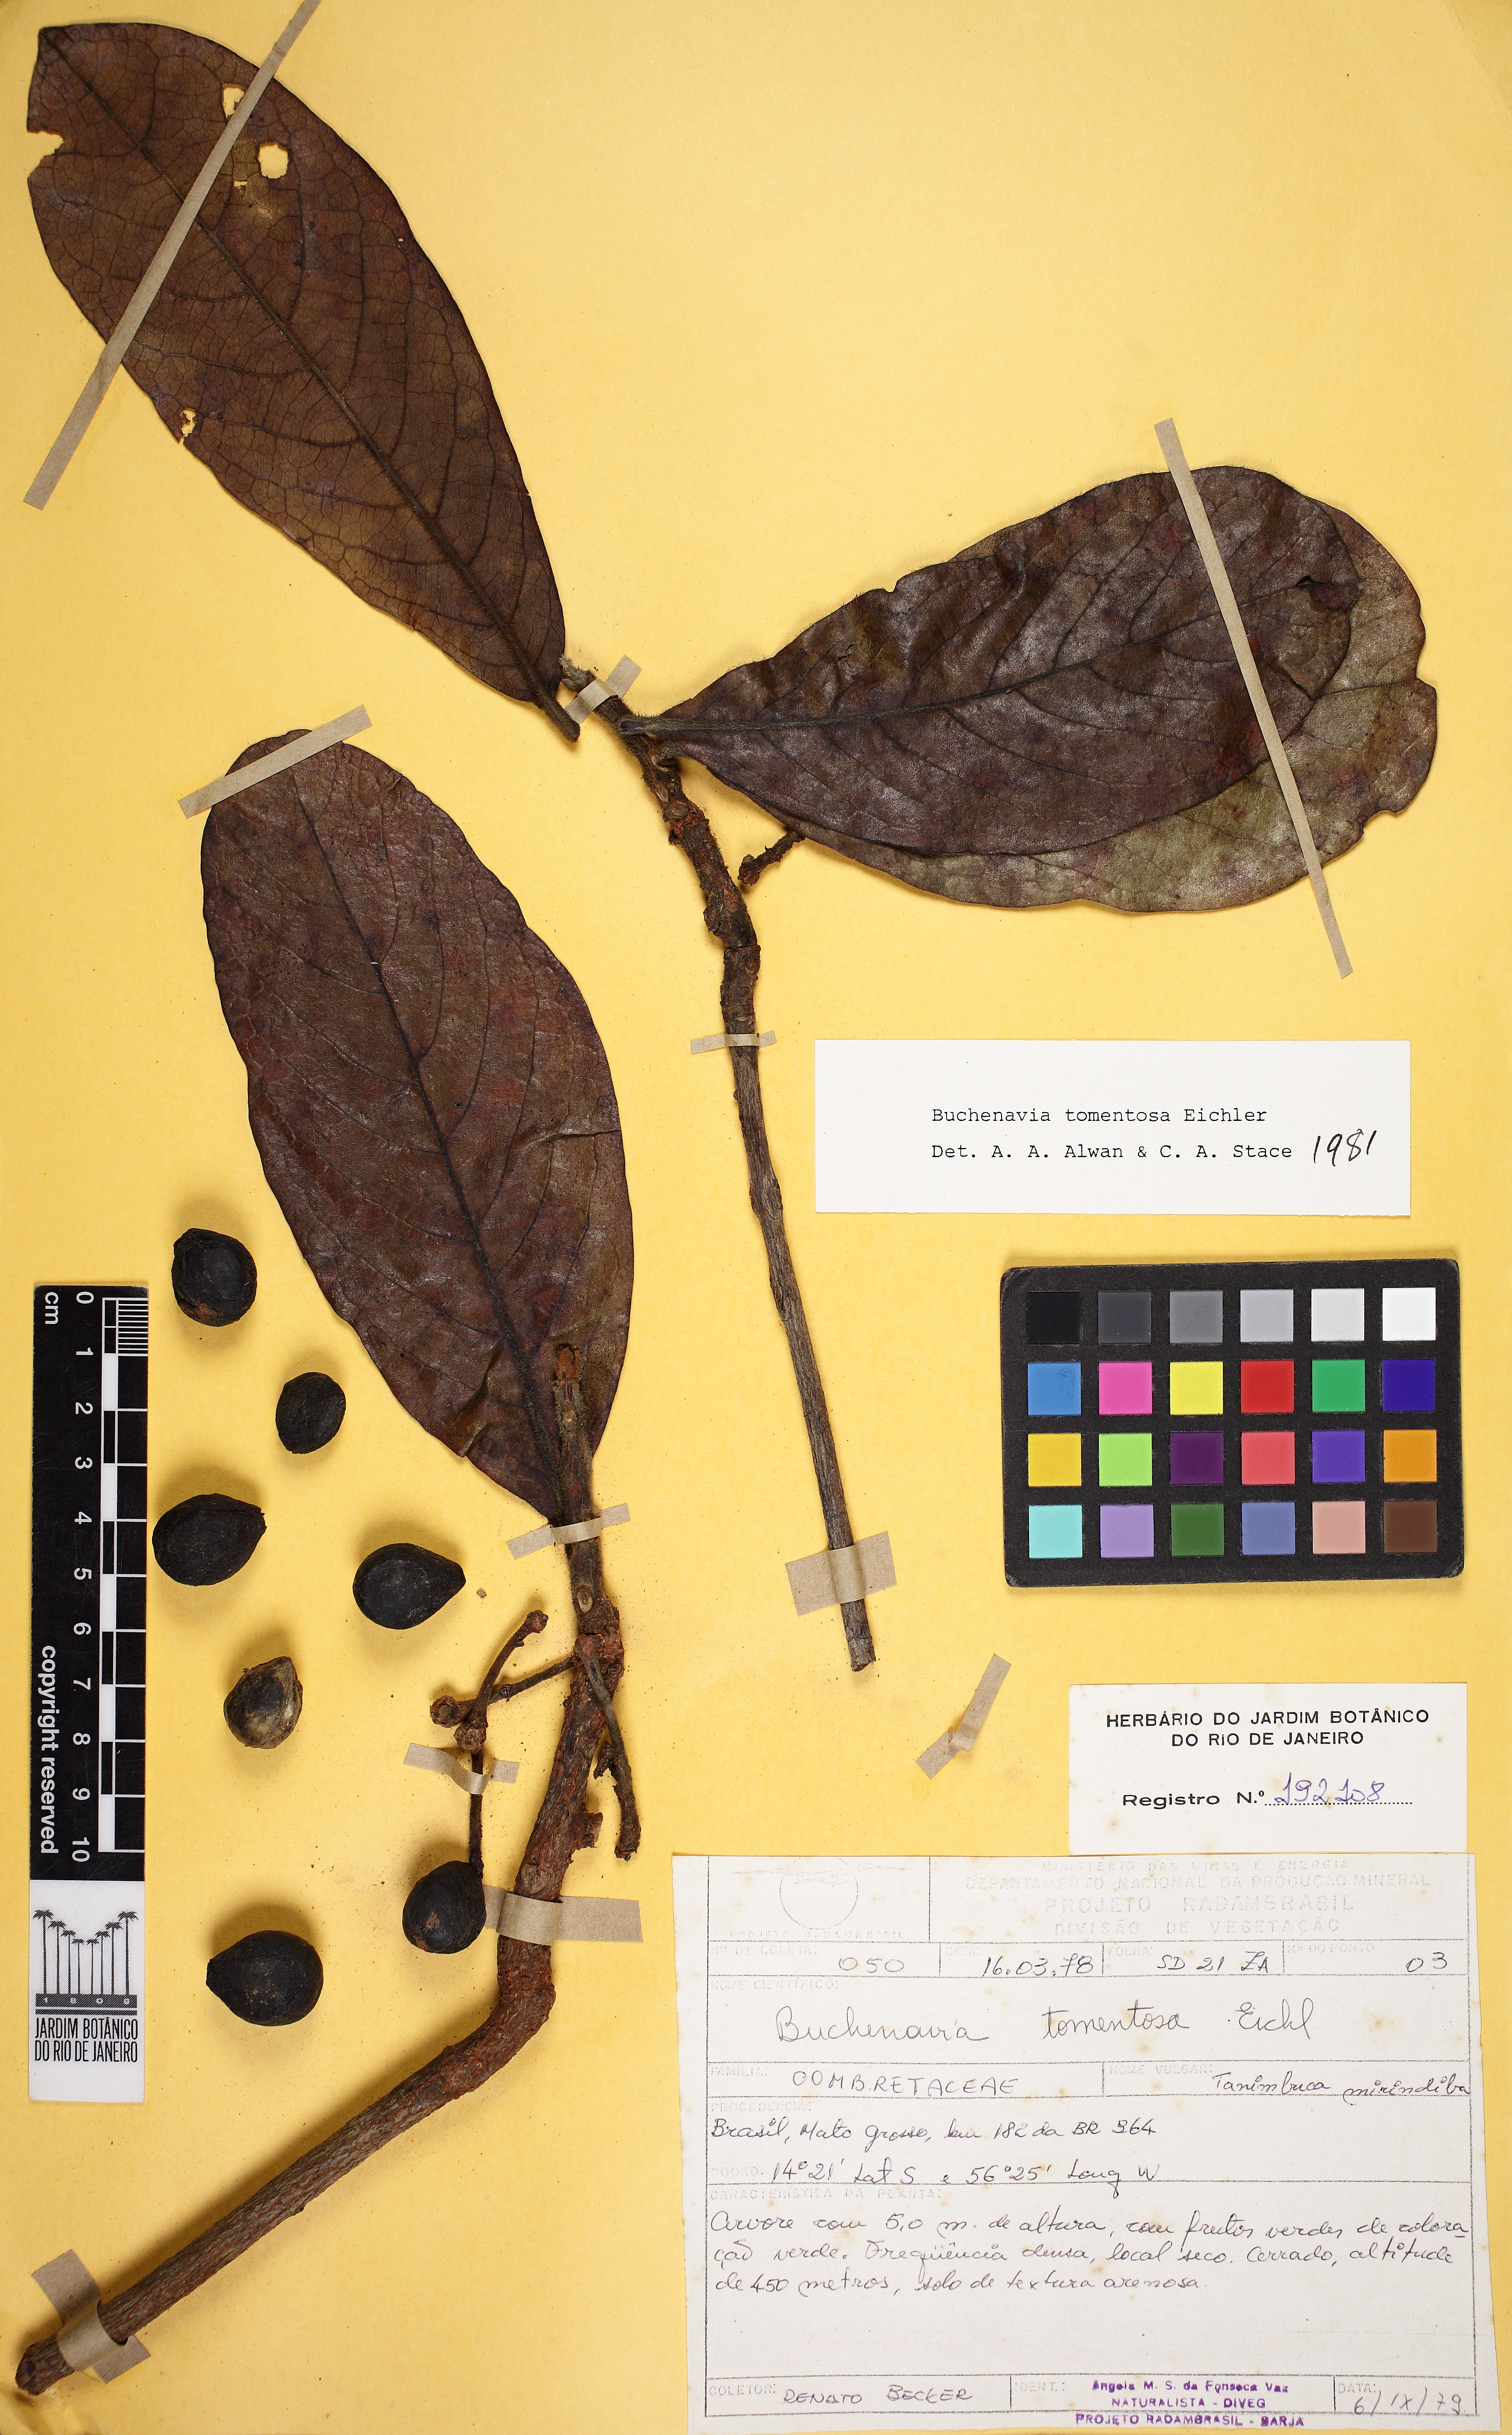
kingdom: Plantae
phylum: Tracheophyta
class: Magnoliopsida
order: Myrtales
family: Combretaceae
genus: Terminalia
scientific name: Terminalia corrugata
